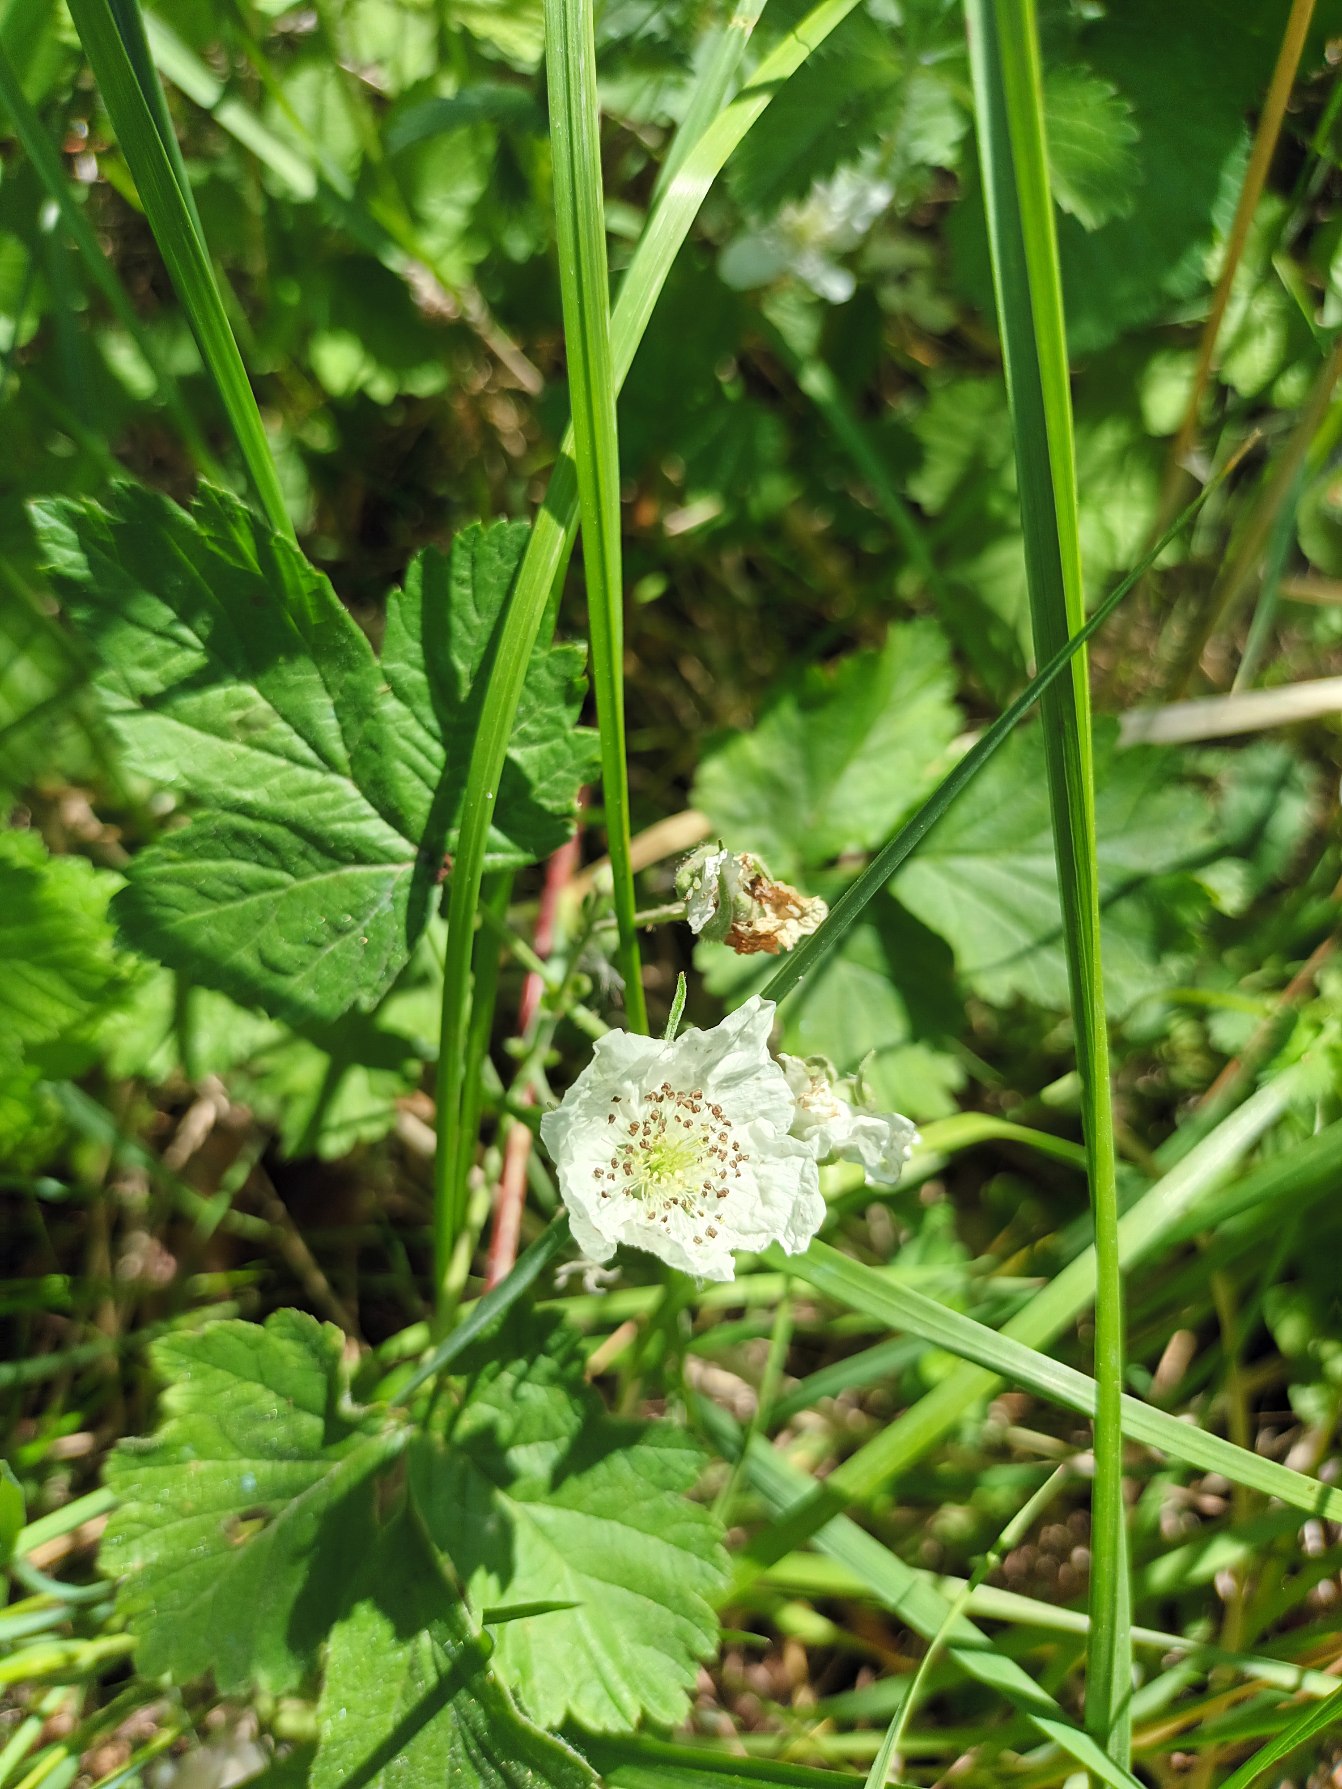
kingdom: Plantae
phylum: Tracheophyta
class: Magnoliopsida
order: Rosales
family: Rosaceae
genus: Rubus
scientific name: Rubus caesius
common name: Korbær
